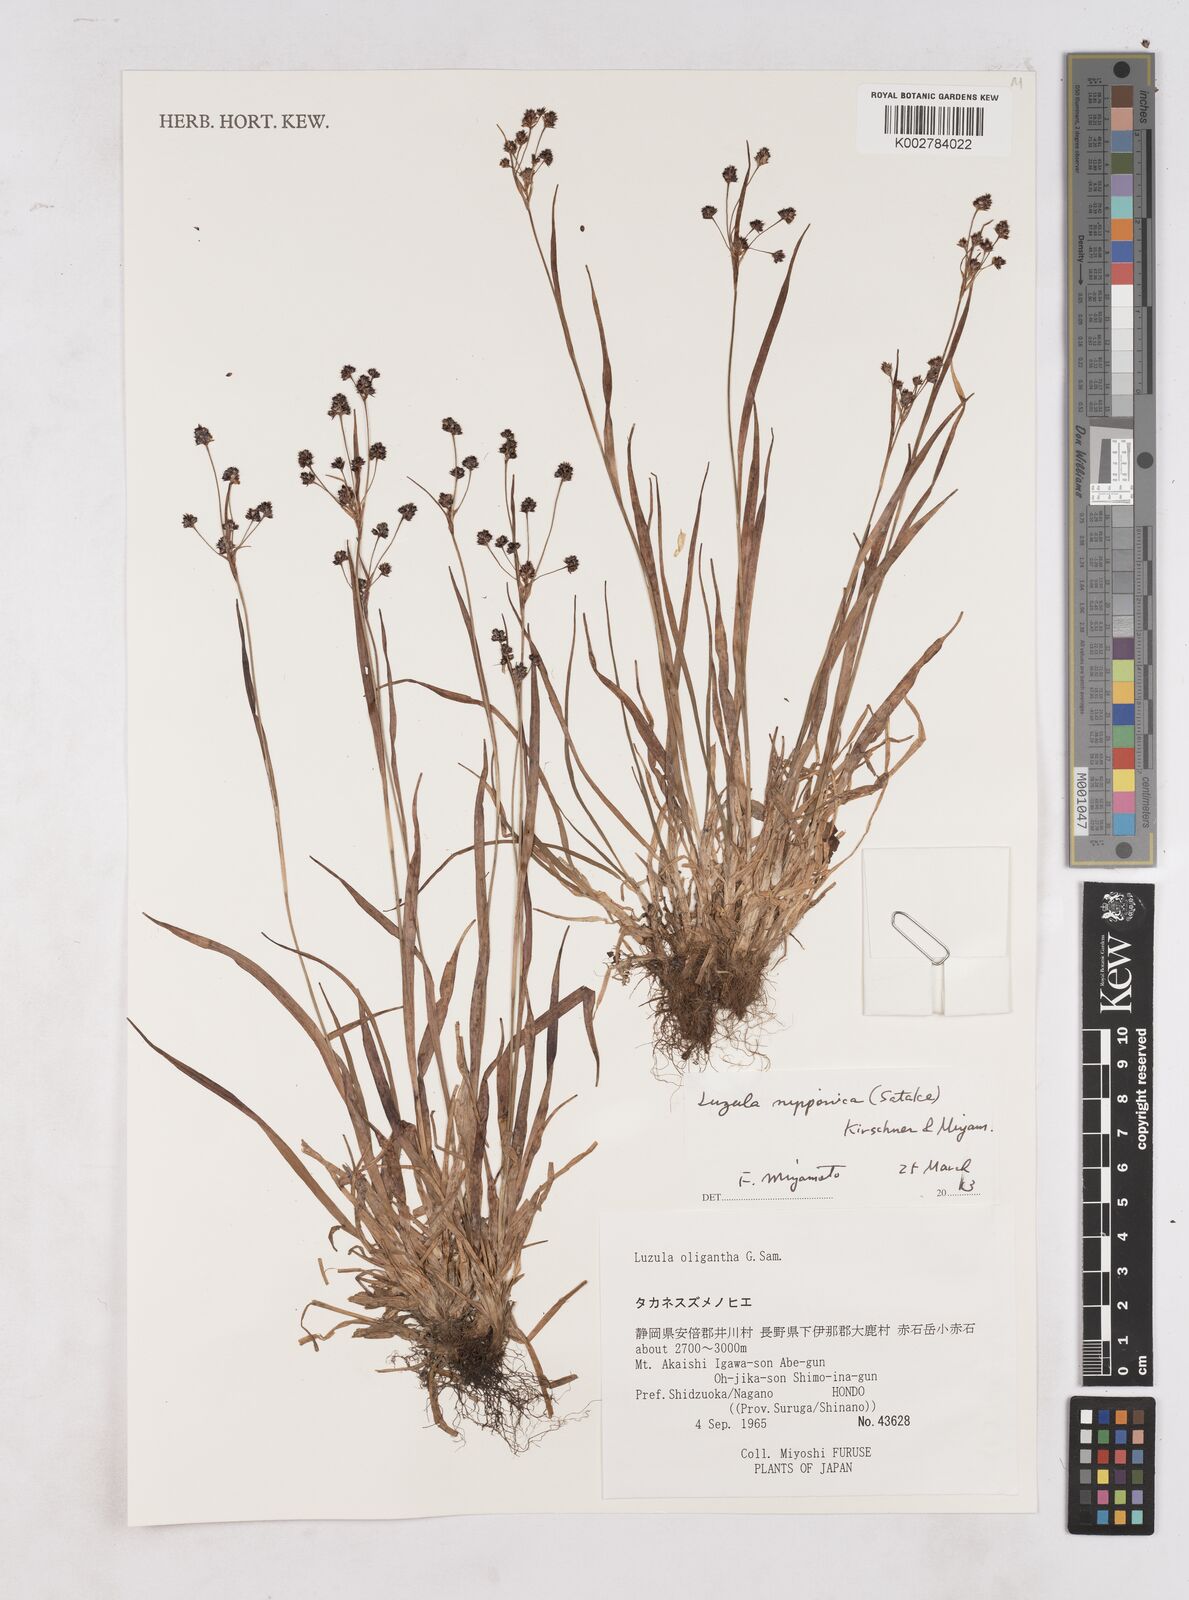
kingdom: Plantae
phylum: Tracheophyta
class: Liliopsida
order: Poales
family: Juncaceae
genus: Luzula
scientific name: Luzula oligantha
